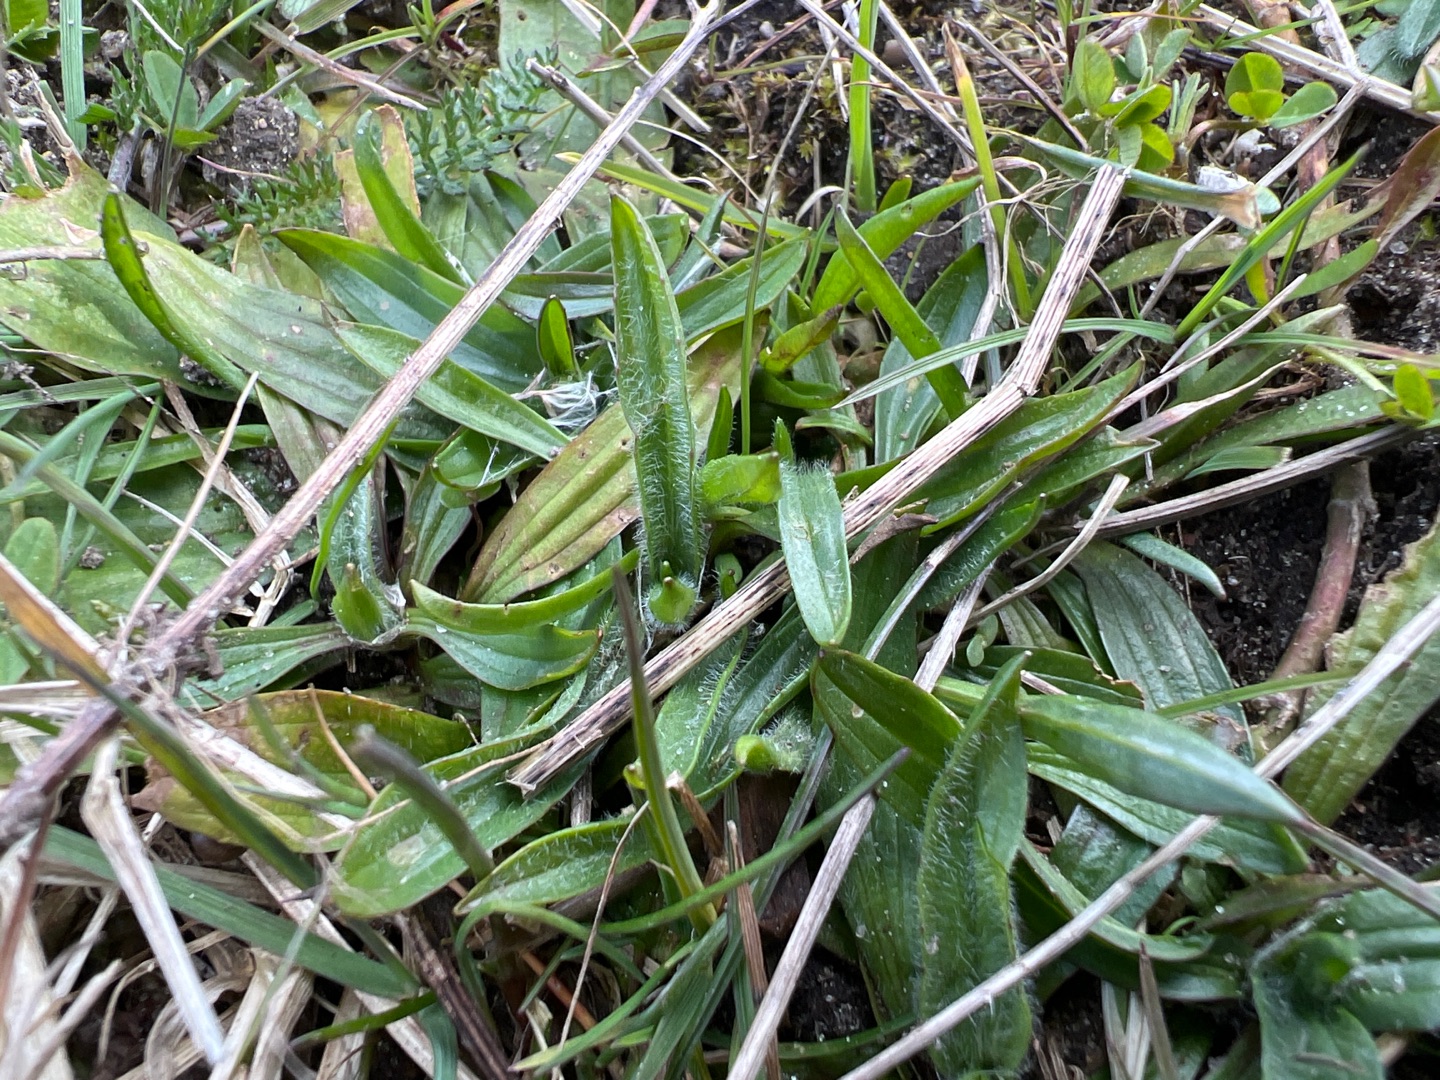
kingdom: Plantae
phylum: Tracheophyta
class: Magnoliopsida
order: Lamiales
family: Plantaginaceae
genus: Plantago
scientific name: Plantago lanceolata
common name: Lancet-vejbred
